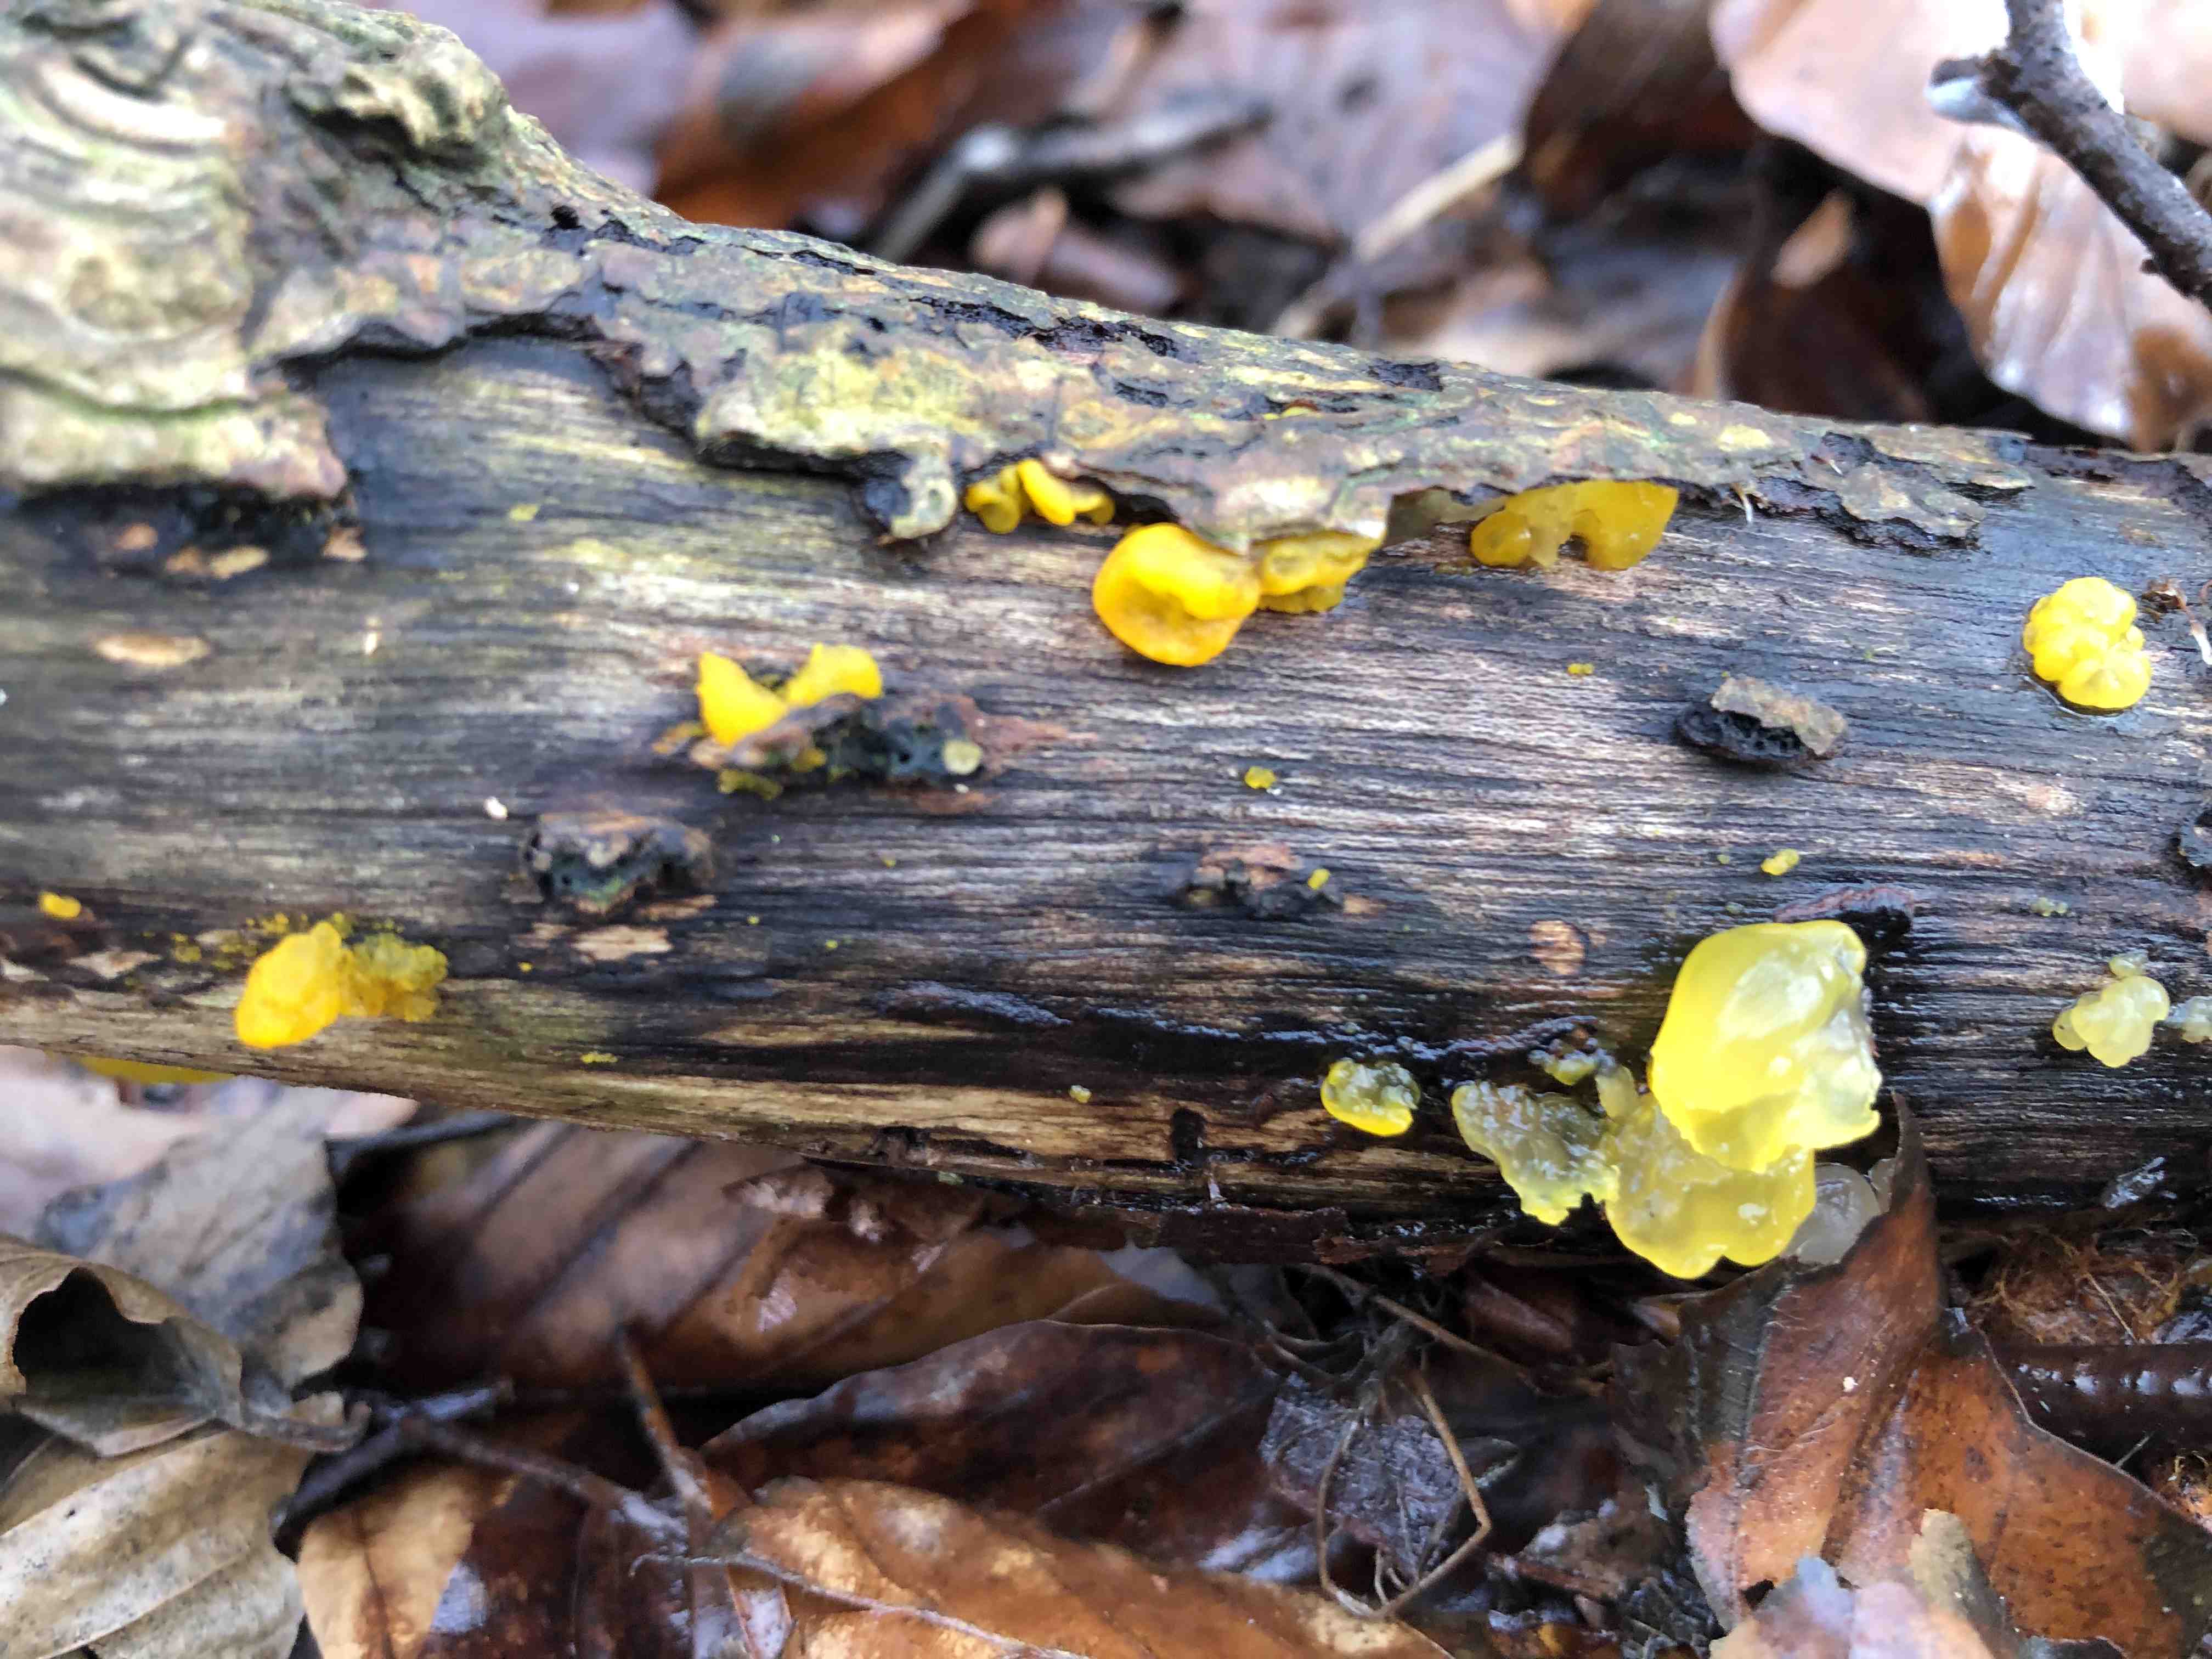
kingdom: Fungi
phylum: Basidiomycota
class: Tremellomycetes
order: Tremellales
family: Tremellaceae
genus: Tremella
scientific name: Tremella mesenterica
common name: gul bævresvamp
